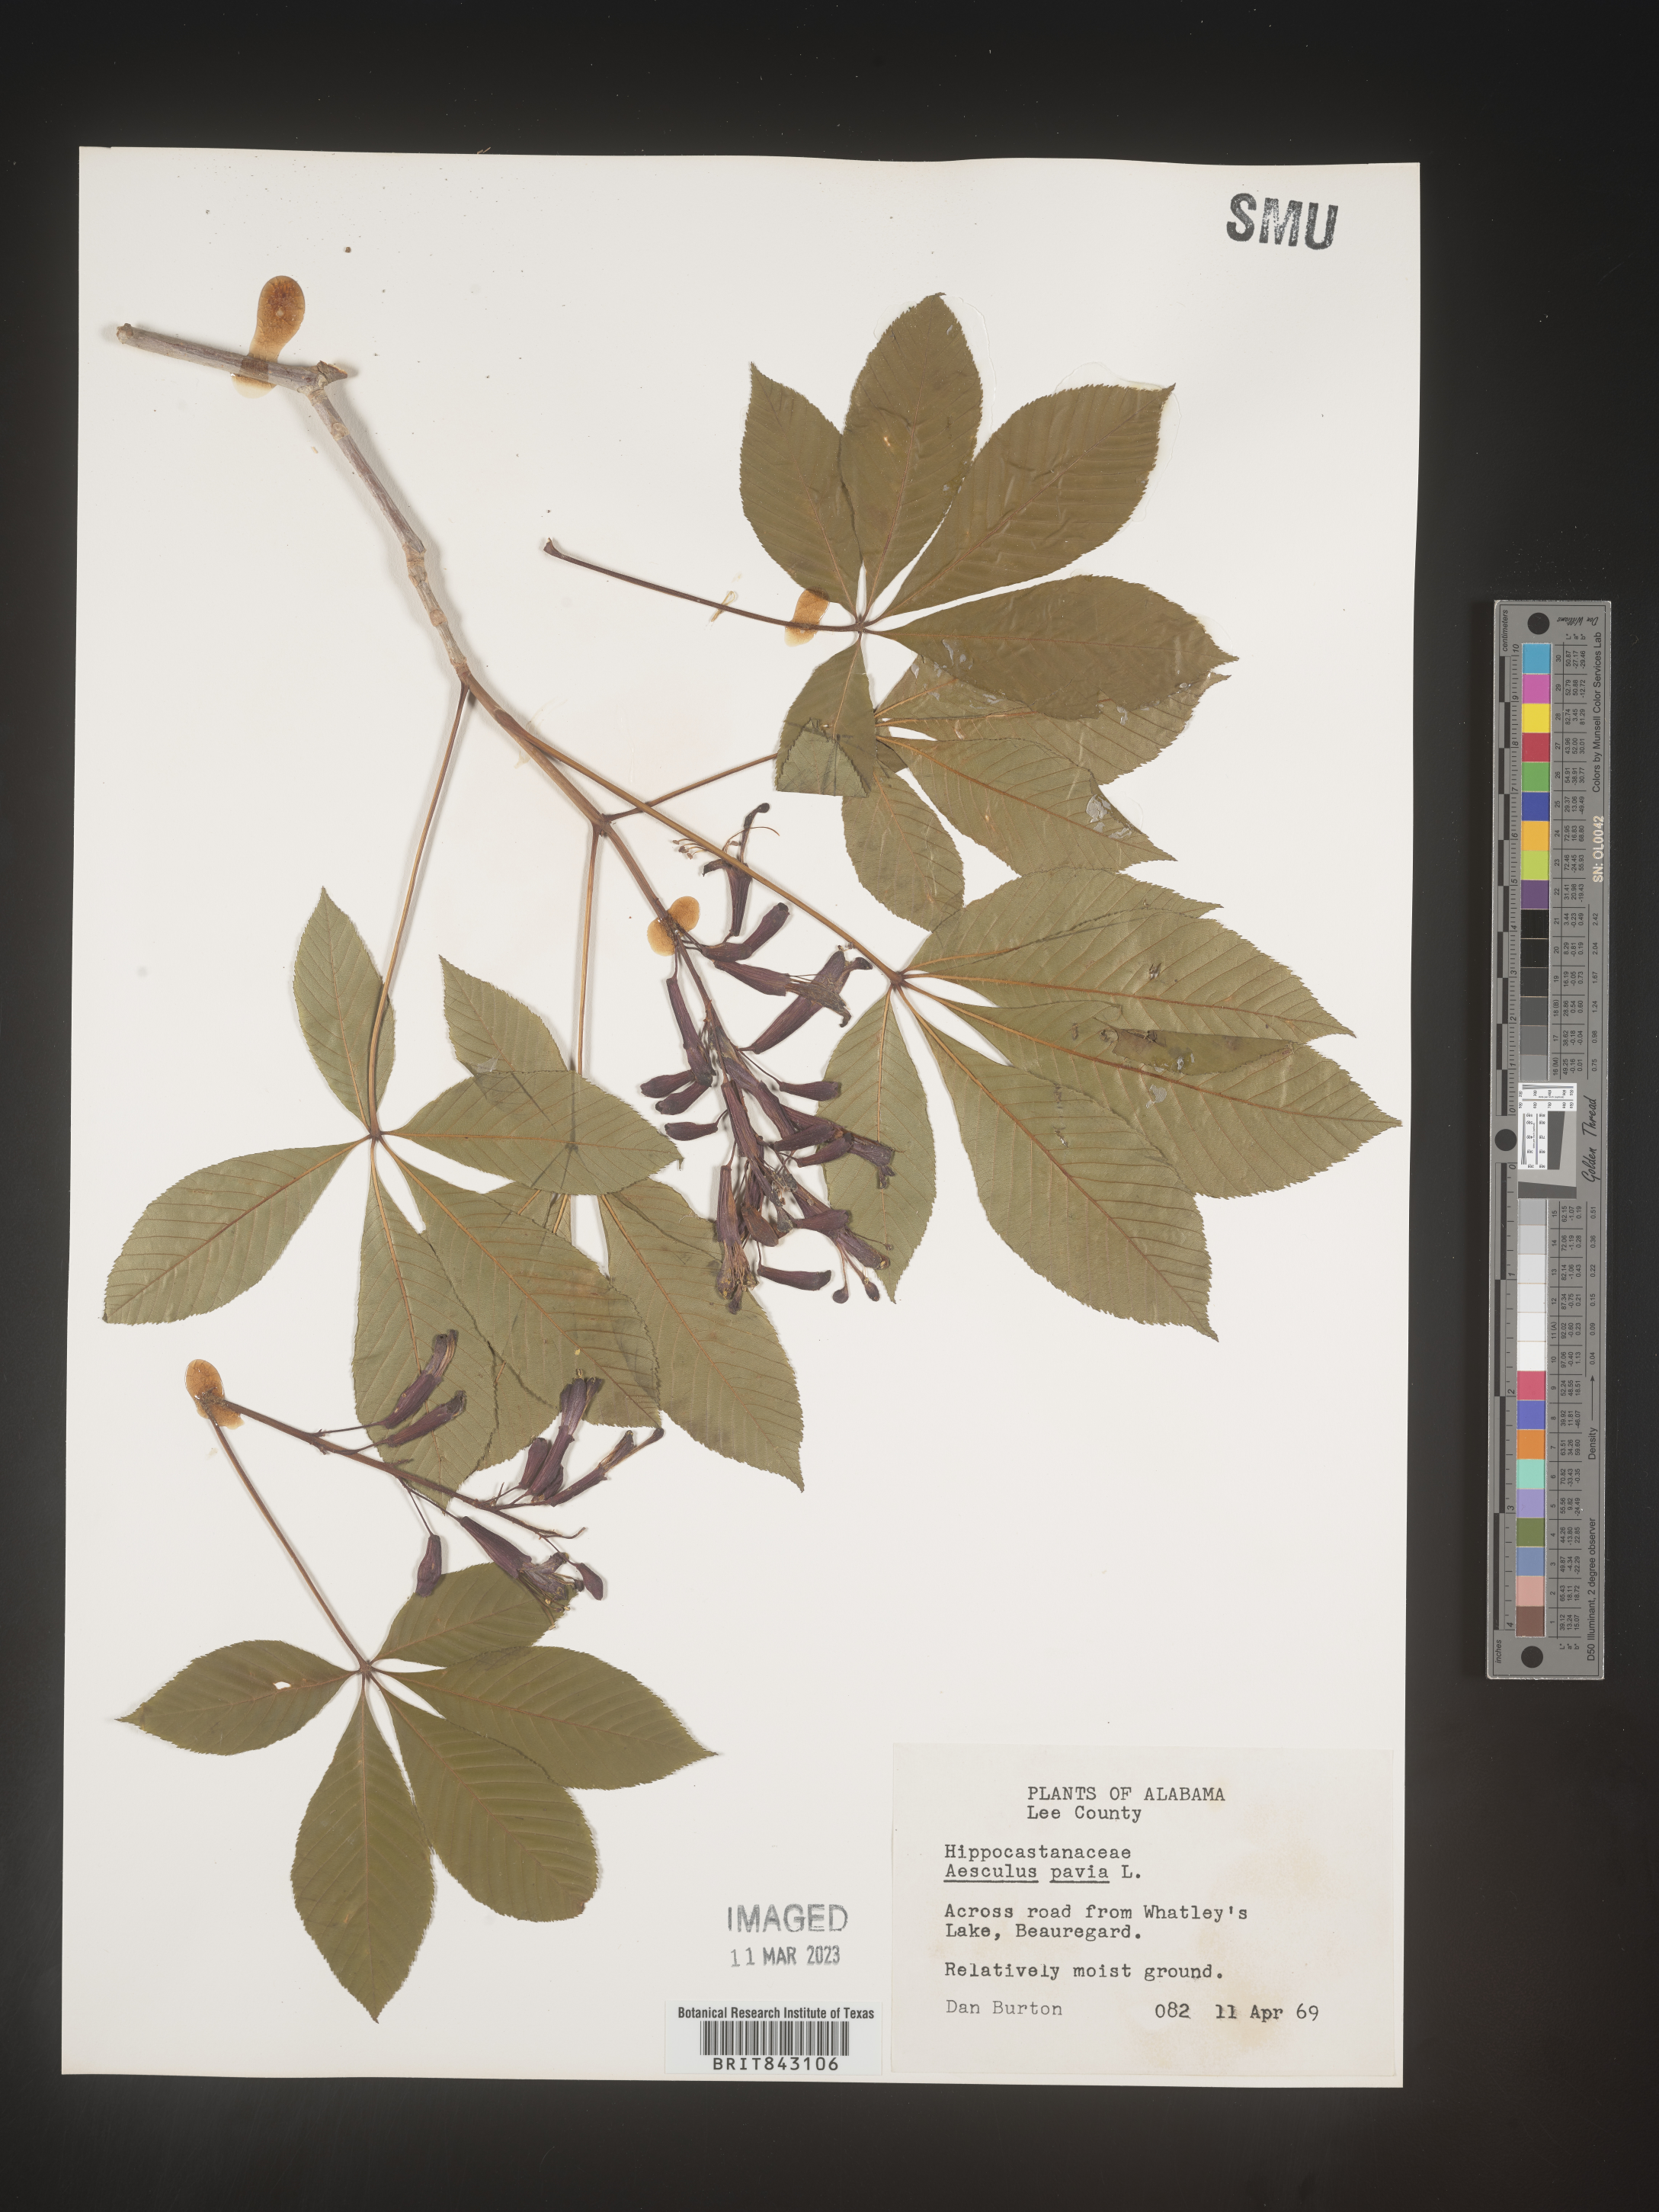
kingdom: Plantae
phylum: Tracheophyta
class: Magnoliopsida
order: Sapindales
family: Sapindaceae
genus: Aesculus
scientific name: Aesculus pavia
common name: Red buckeye
